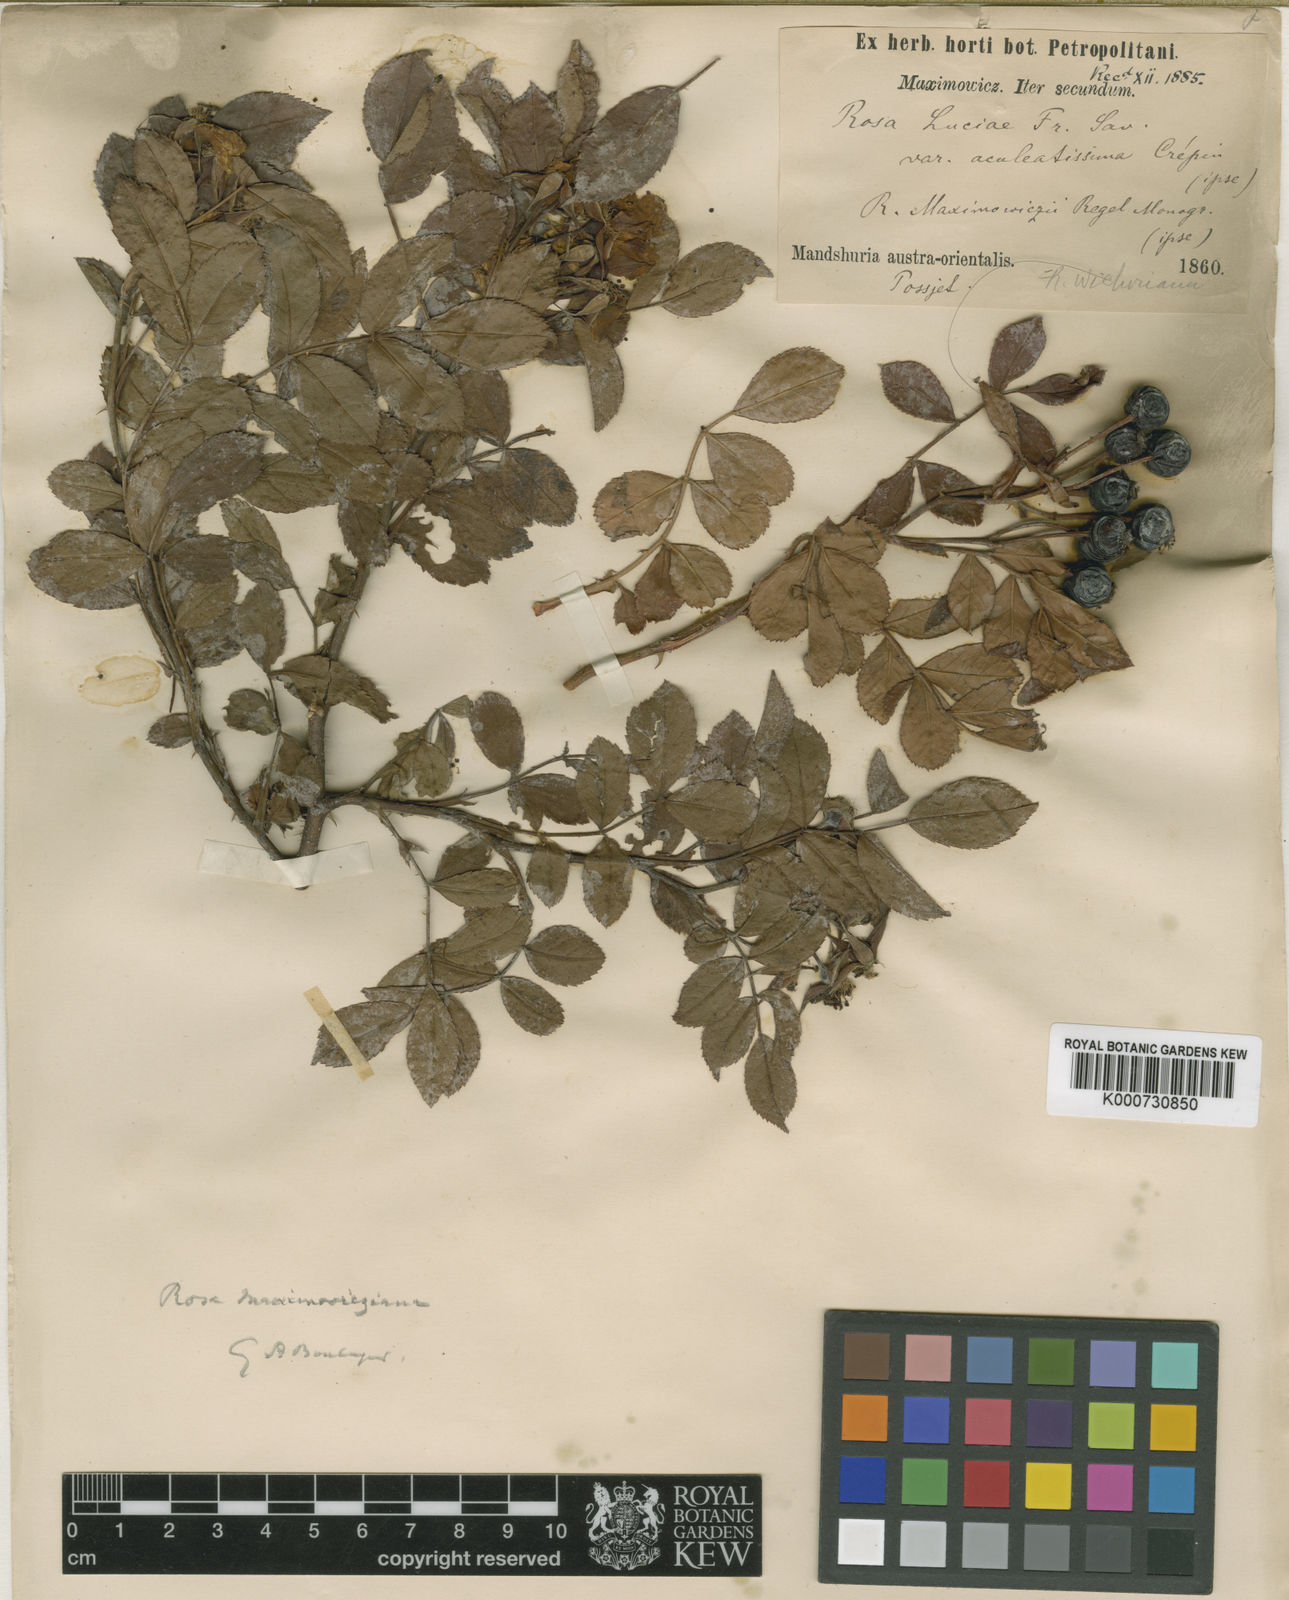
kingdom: Plantae
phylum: Tracheophyta
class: Magnoliopsida
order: Rosales
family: Rosaceae
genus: Rosa
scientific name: Rosa maximowicziana
